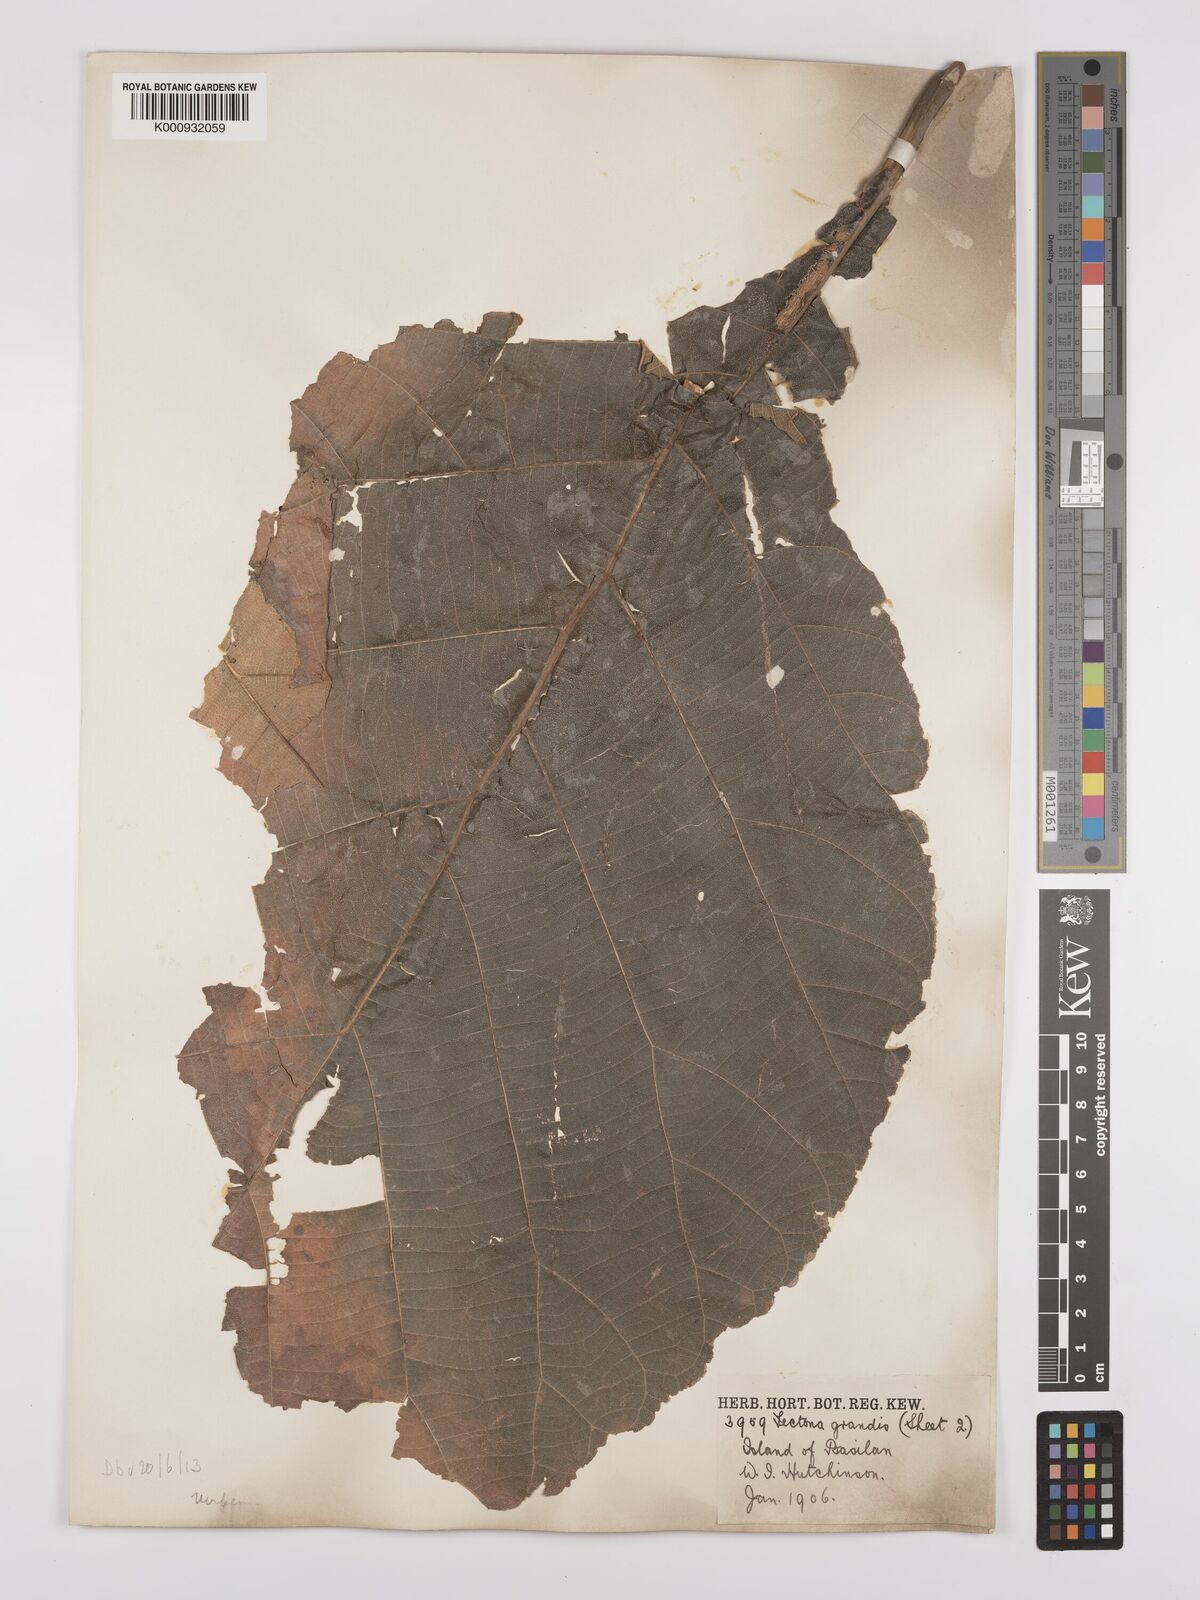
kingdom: Plantae
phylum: Tracheophyta
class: Magnoliopsida
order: Lamiales
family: Lamiaceae
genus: Tectona
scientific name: Tectona grandis
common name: Teak
